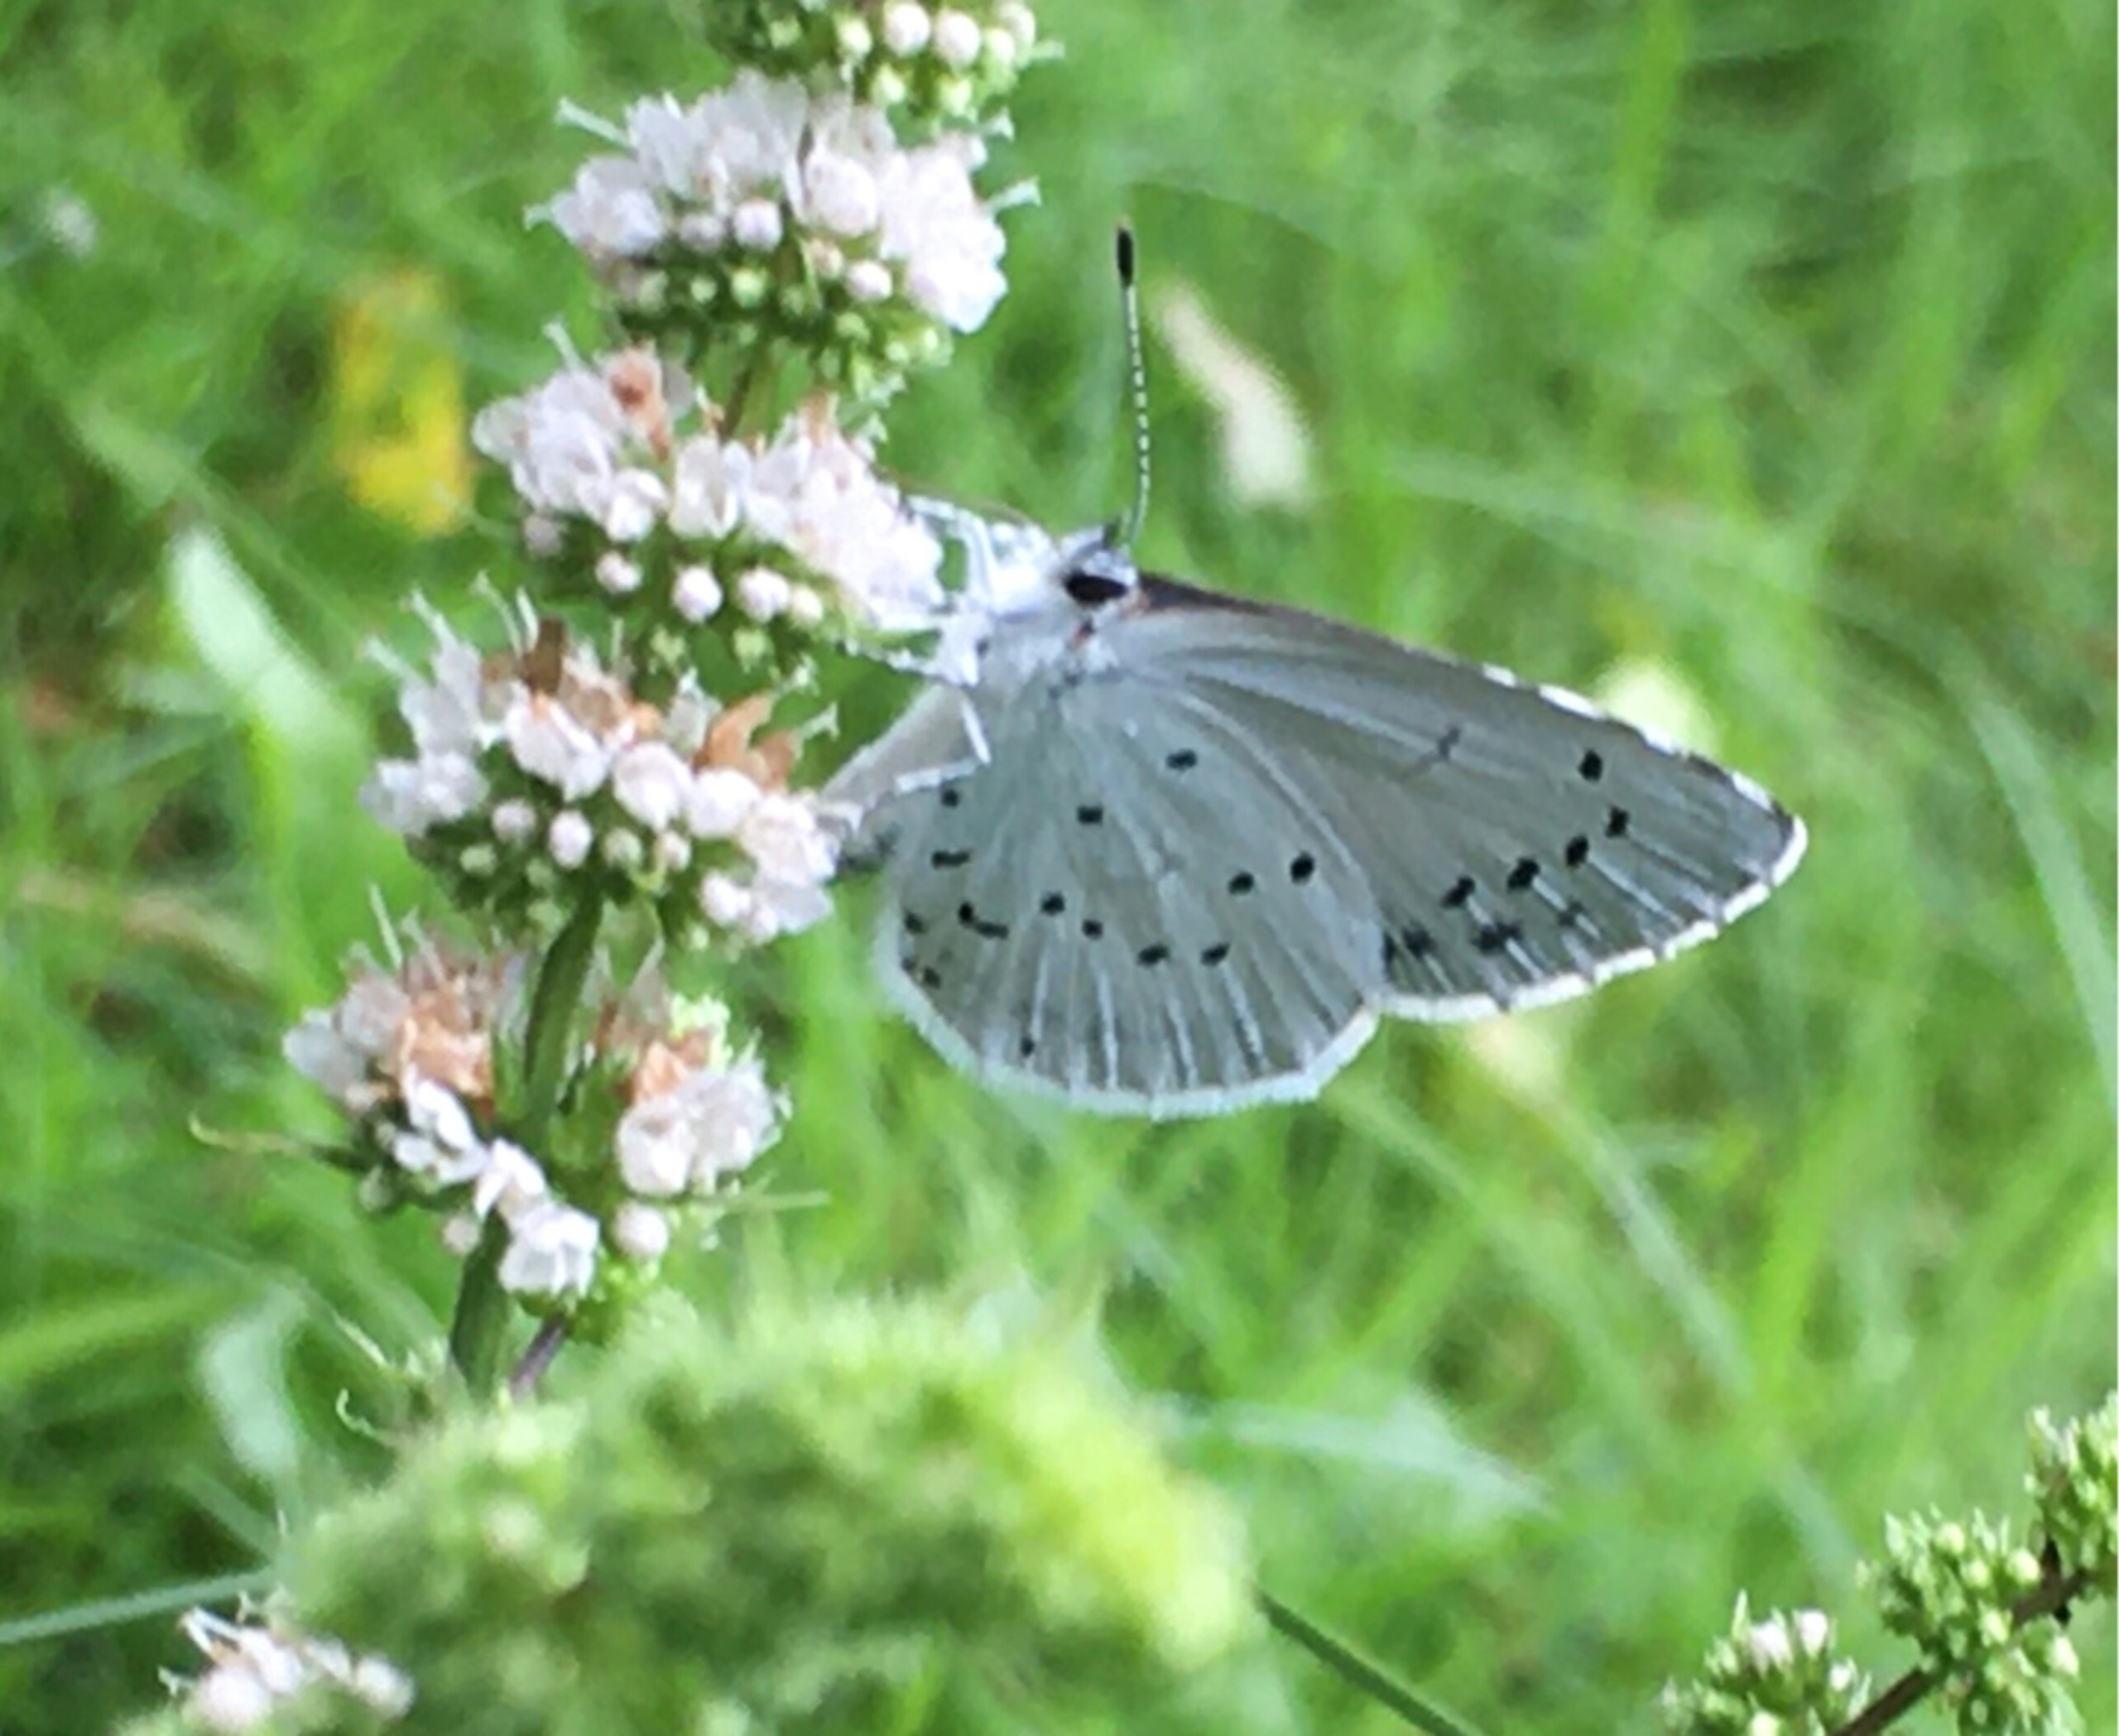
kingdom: Animalia
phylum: Arthropoda
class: Insecta
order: Lepidoptera
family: Lycaenidae
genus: Celastrina
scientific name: Celastrina argiolus
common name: Skovblåfugl
